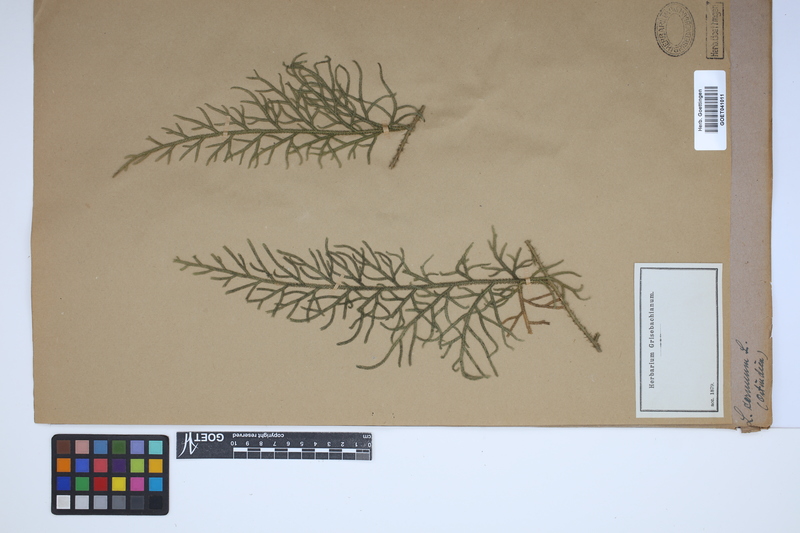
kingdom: Plantae
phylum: Tracheophyta
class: Lycopodiopsida
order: Lycopodiales
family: Lycopodiaceae
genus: Palhinhaea
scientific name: Palhinhaea cernua
